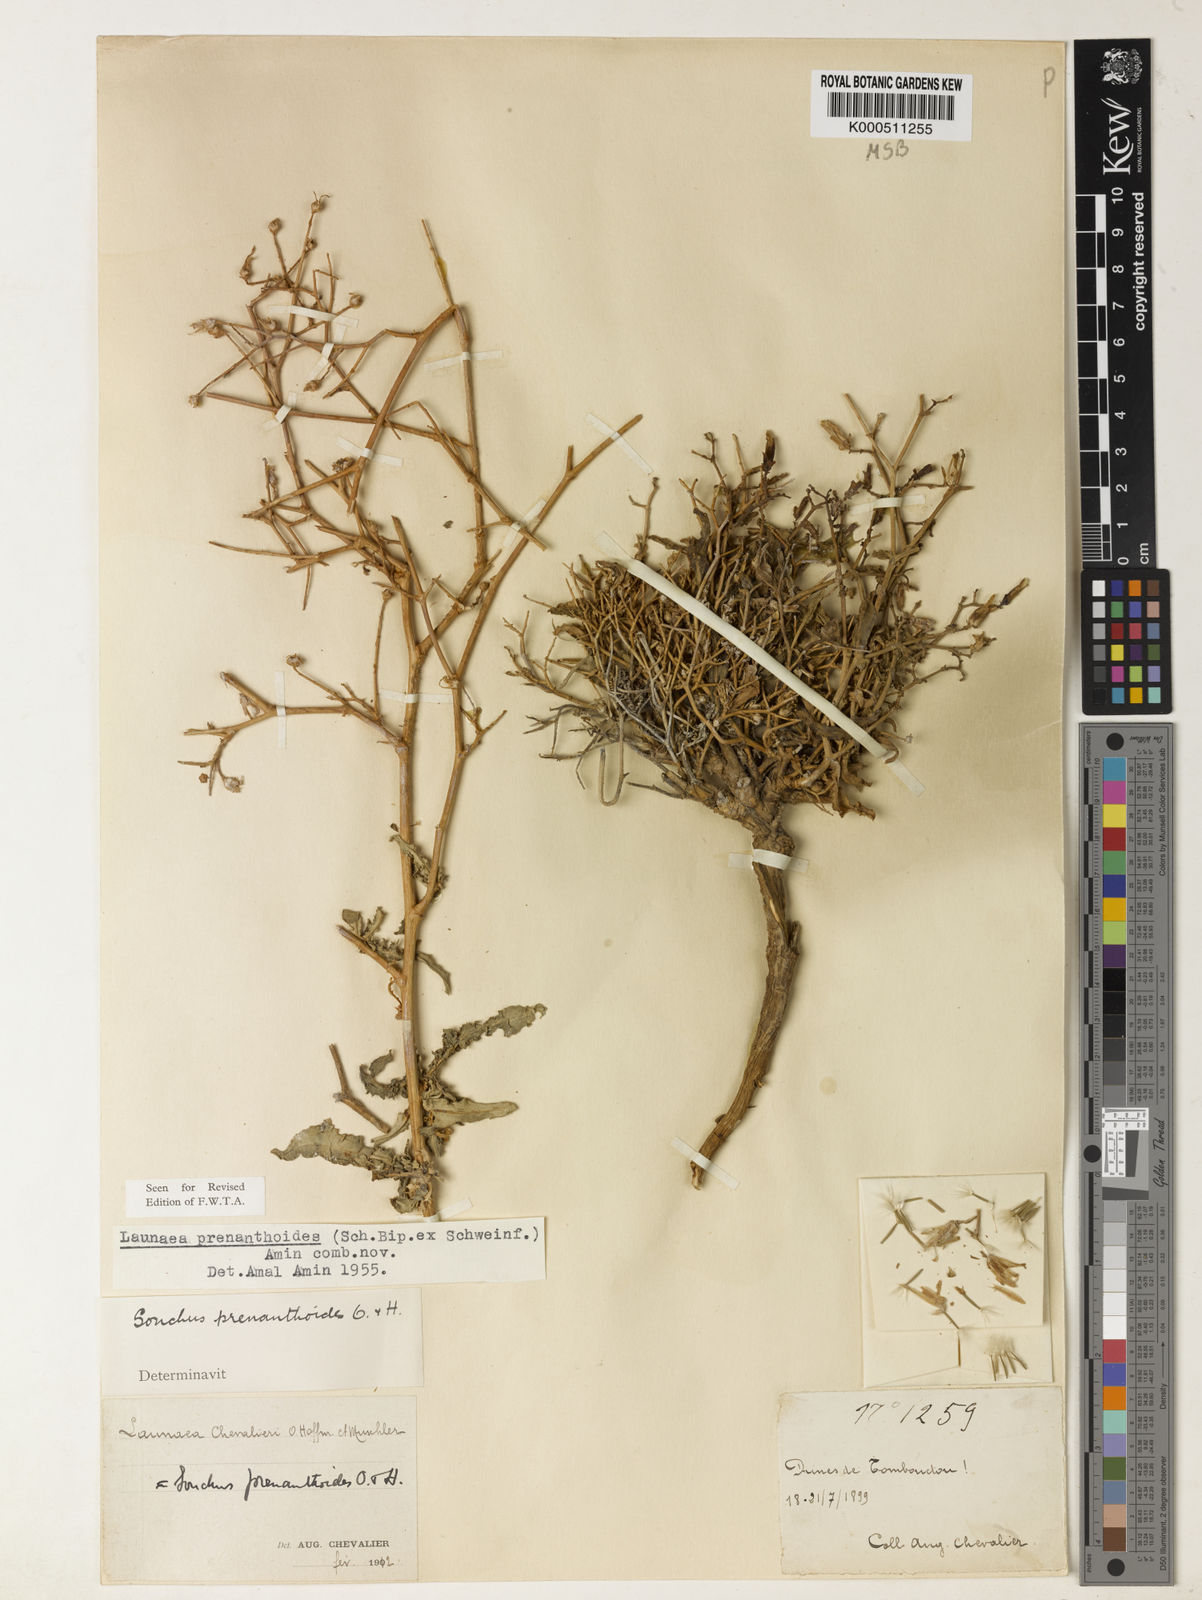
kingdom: Plantae
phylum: Tracheophyta
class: Magnoliopsida
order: Asterales
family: Asteraceae
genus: Launaea
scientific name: Launaea brunneri
